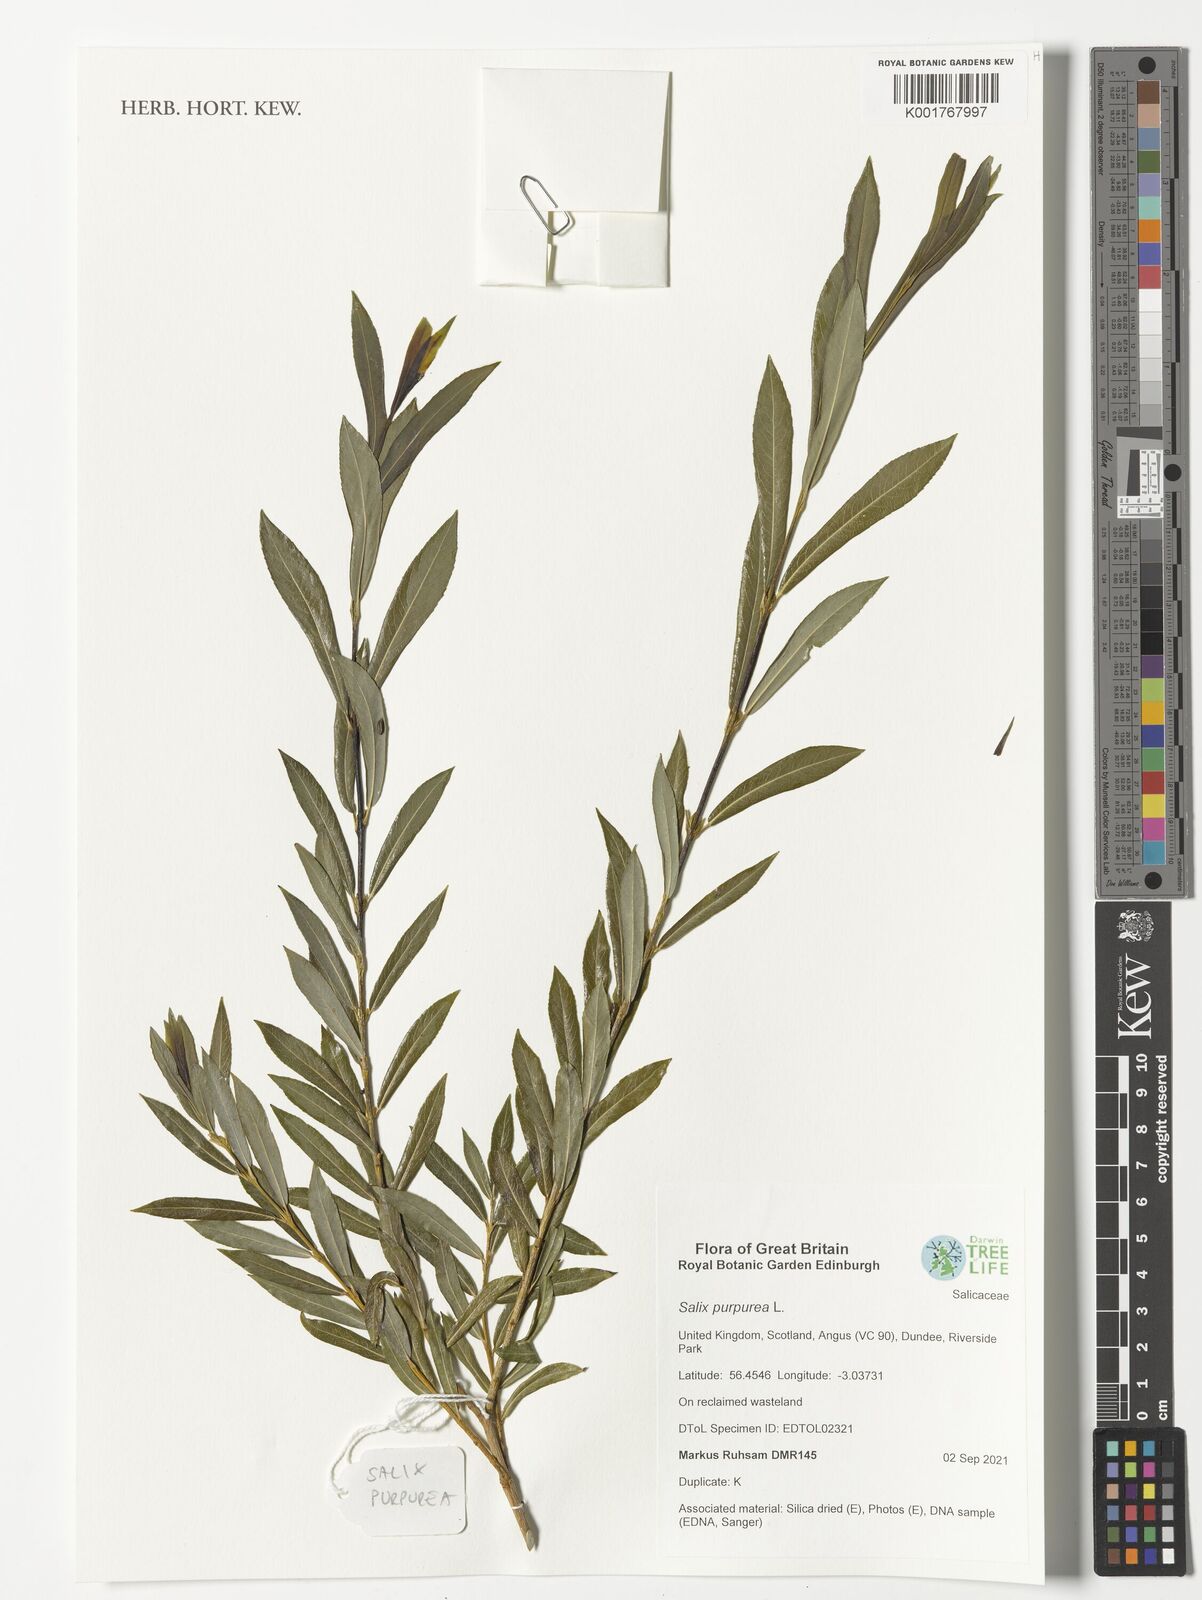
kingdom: Plantae
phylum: Tracheophyta
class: Magnoliopsida
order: Malpighiales
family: Salicaceae
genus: Salix
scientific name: Salix purpurea
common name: Purple willow
